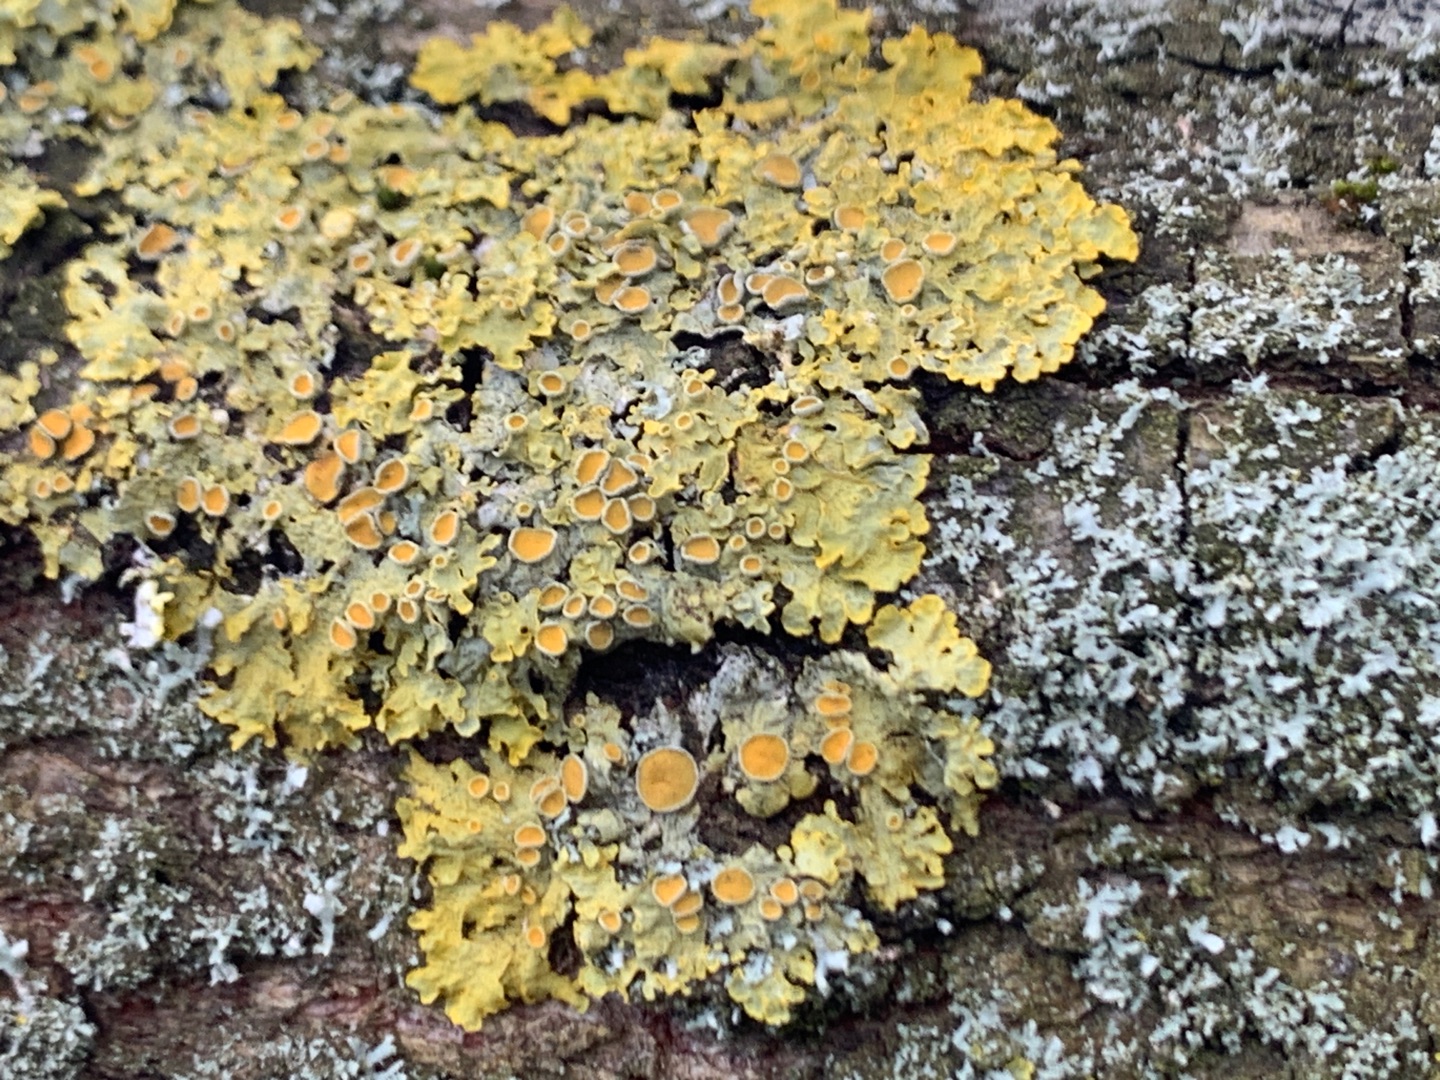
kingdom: Fungi
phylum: Ascomycota
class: Lecanoromycetes
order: Teloschistales
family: Teloschistaceae
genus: Xanthoria
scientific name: Xanthoria parietina
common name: Almindelig væggelav
